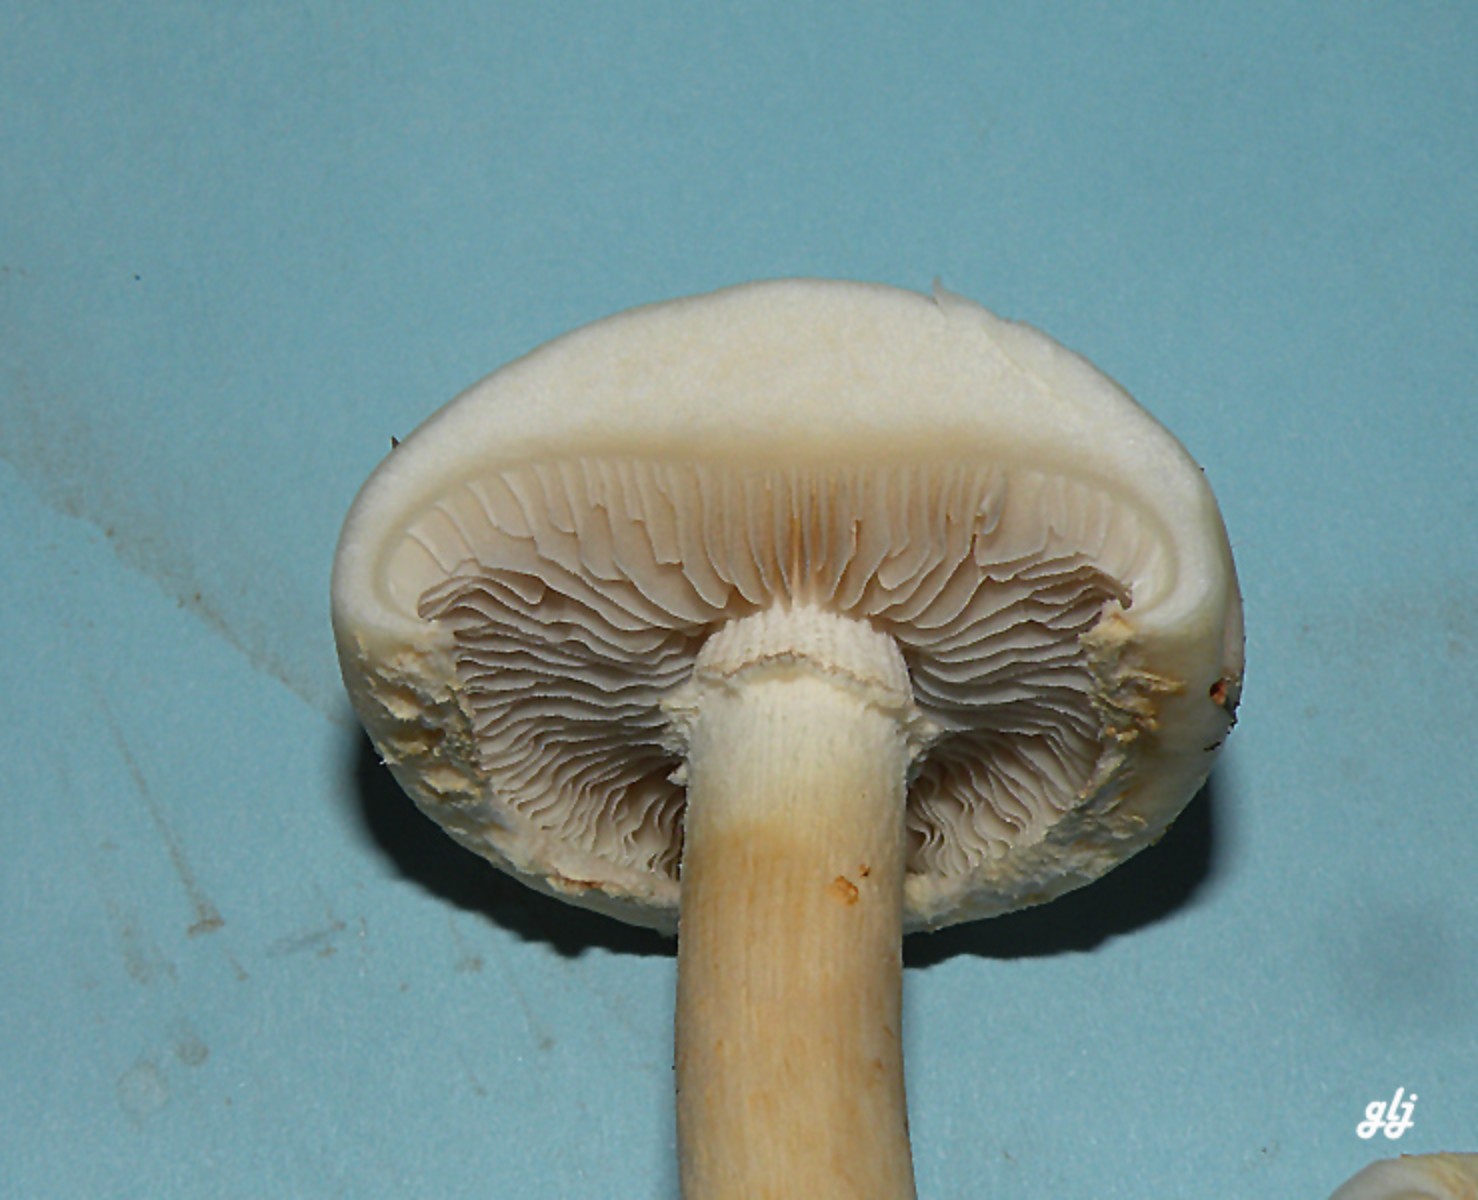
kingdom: Fungi
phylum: Basidiomycota
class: Agaricomycetes
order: Agaricales
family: Strophariaceae
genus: Agrocybe
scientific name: Agrocybe dura
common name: fastkødet agerhat
